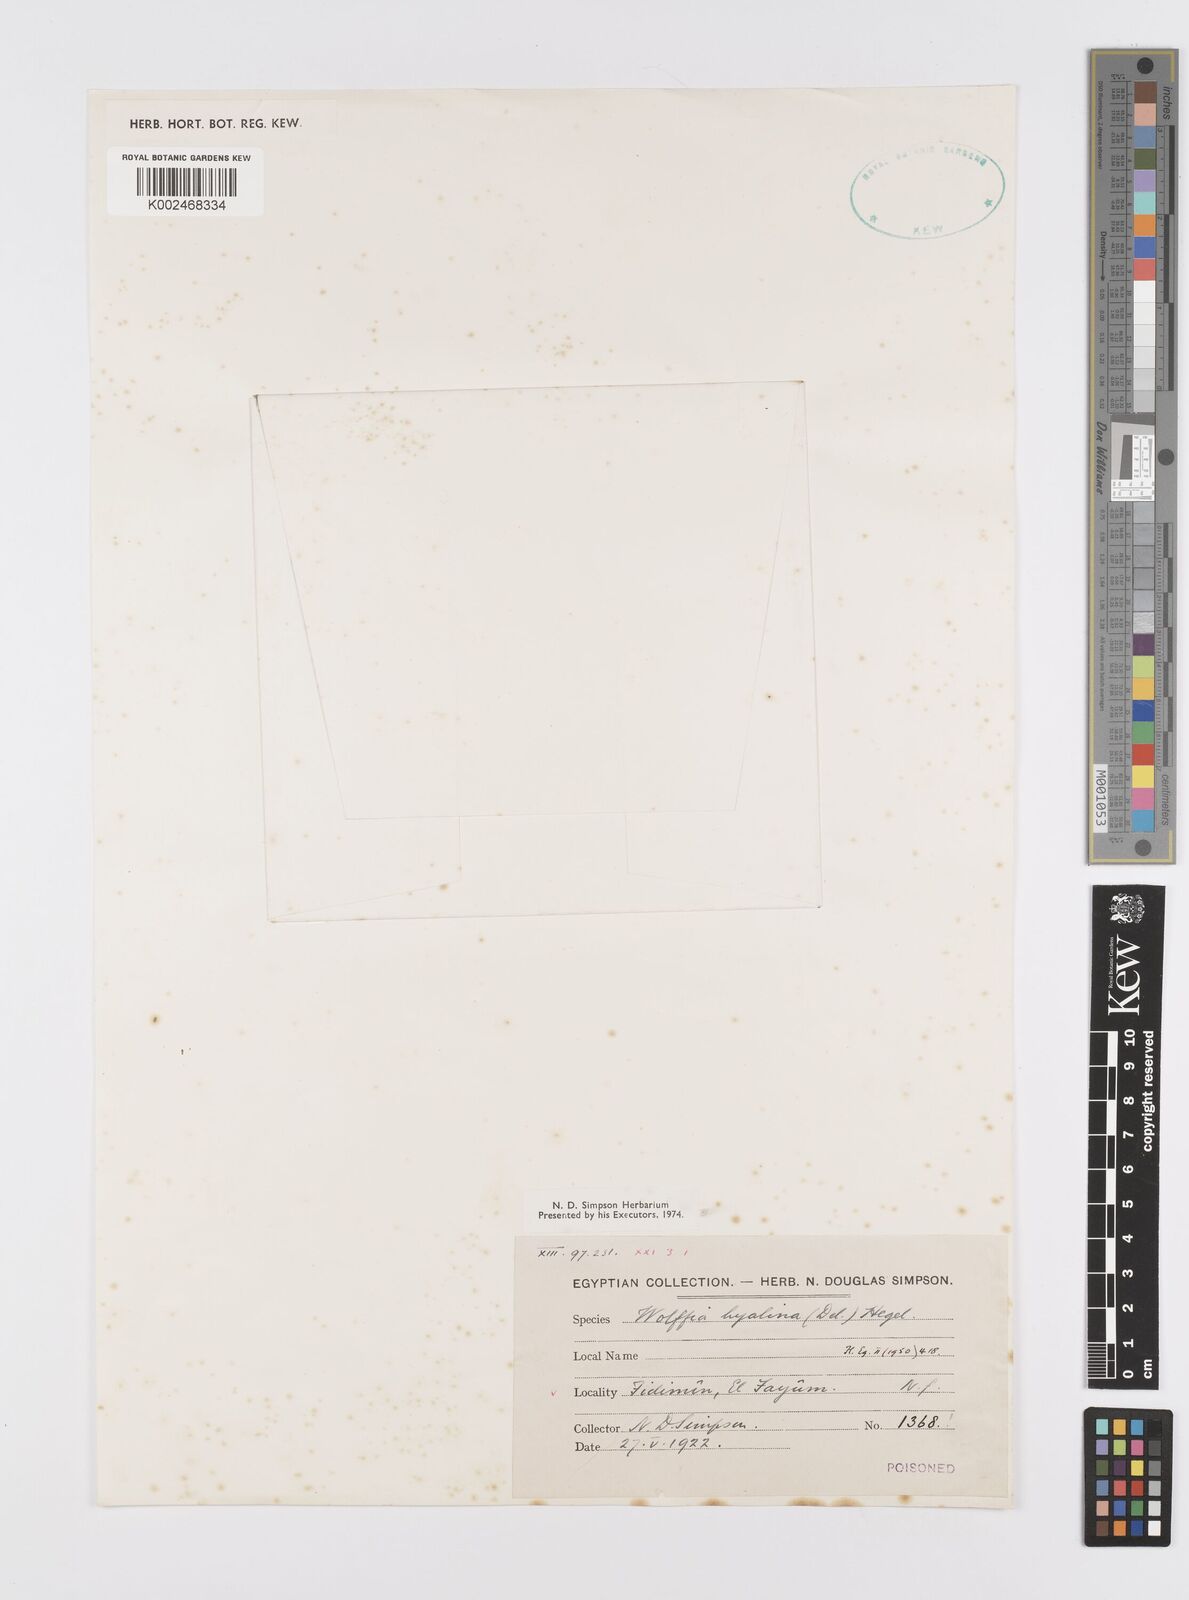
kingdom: Plantae
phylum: Tracheophyta
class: Liliopsida
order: Alismatales
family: Araceae
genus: Wolffiella
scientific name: Wolffiella
